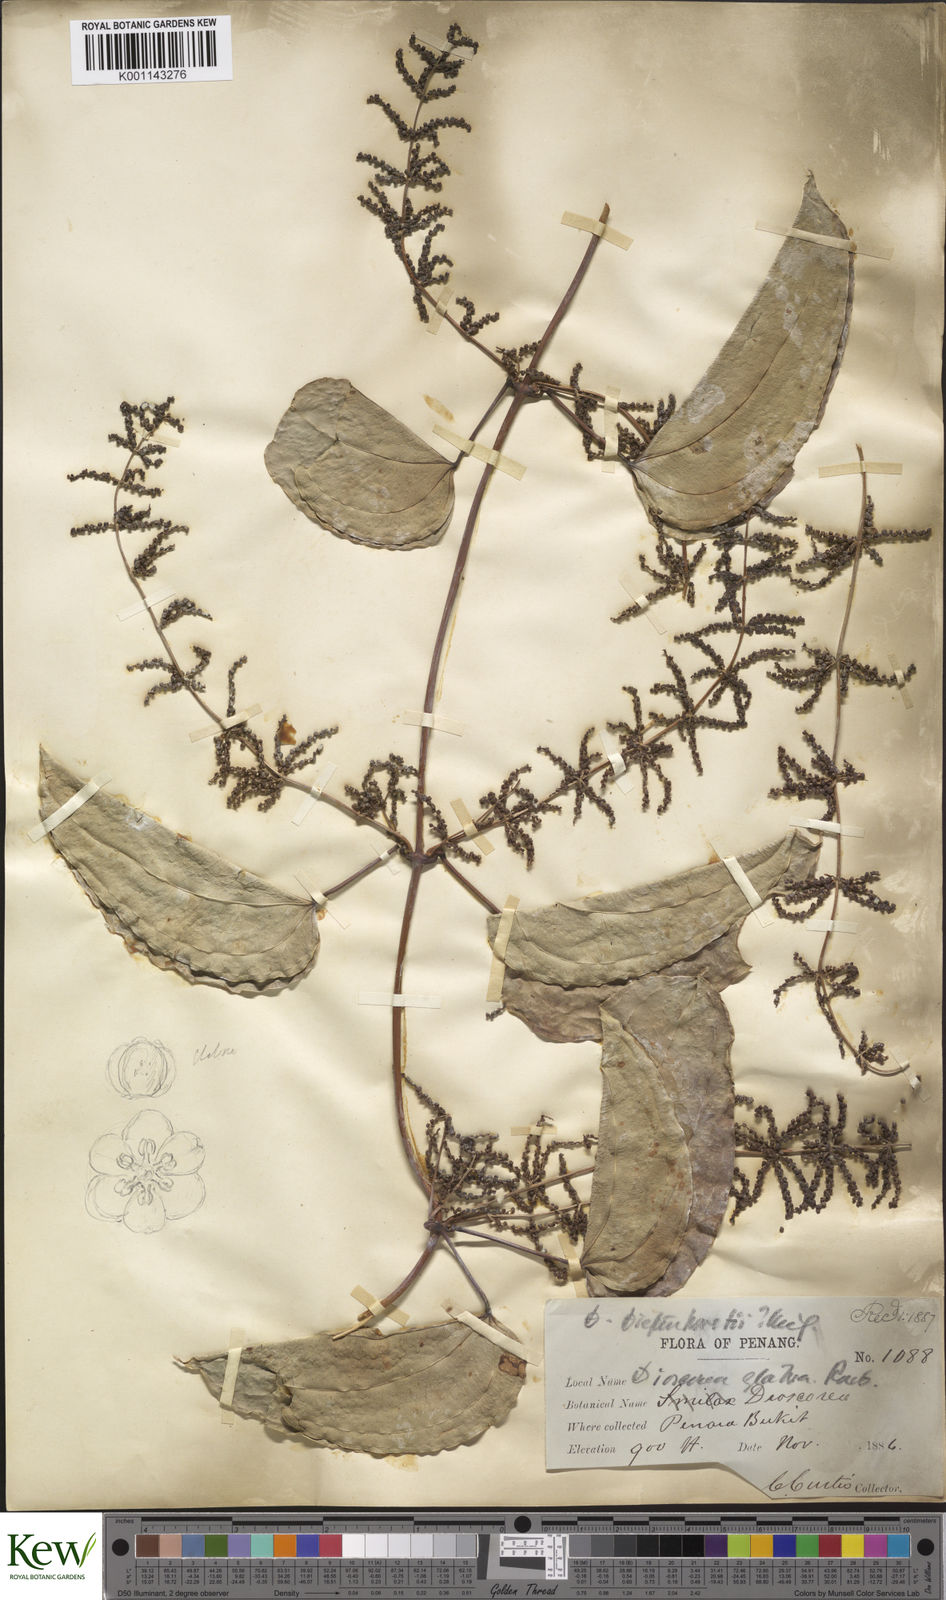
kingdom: Plantae
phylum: Tracheophyta
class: Liliopsida
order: Dioscoreales
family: Dioscoreaceae
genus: Dioscorea
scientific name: Dioscorea glabra
